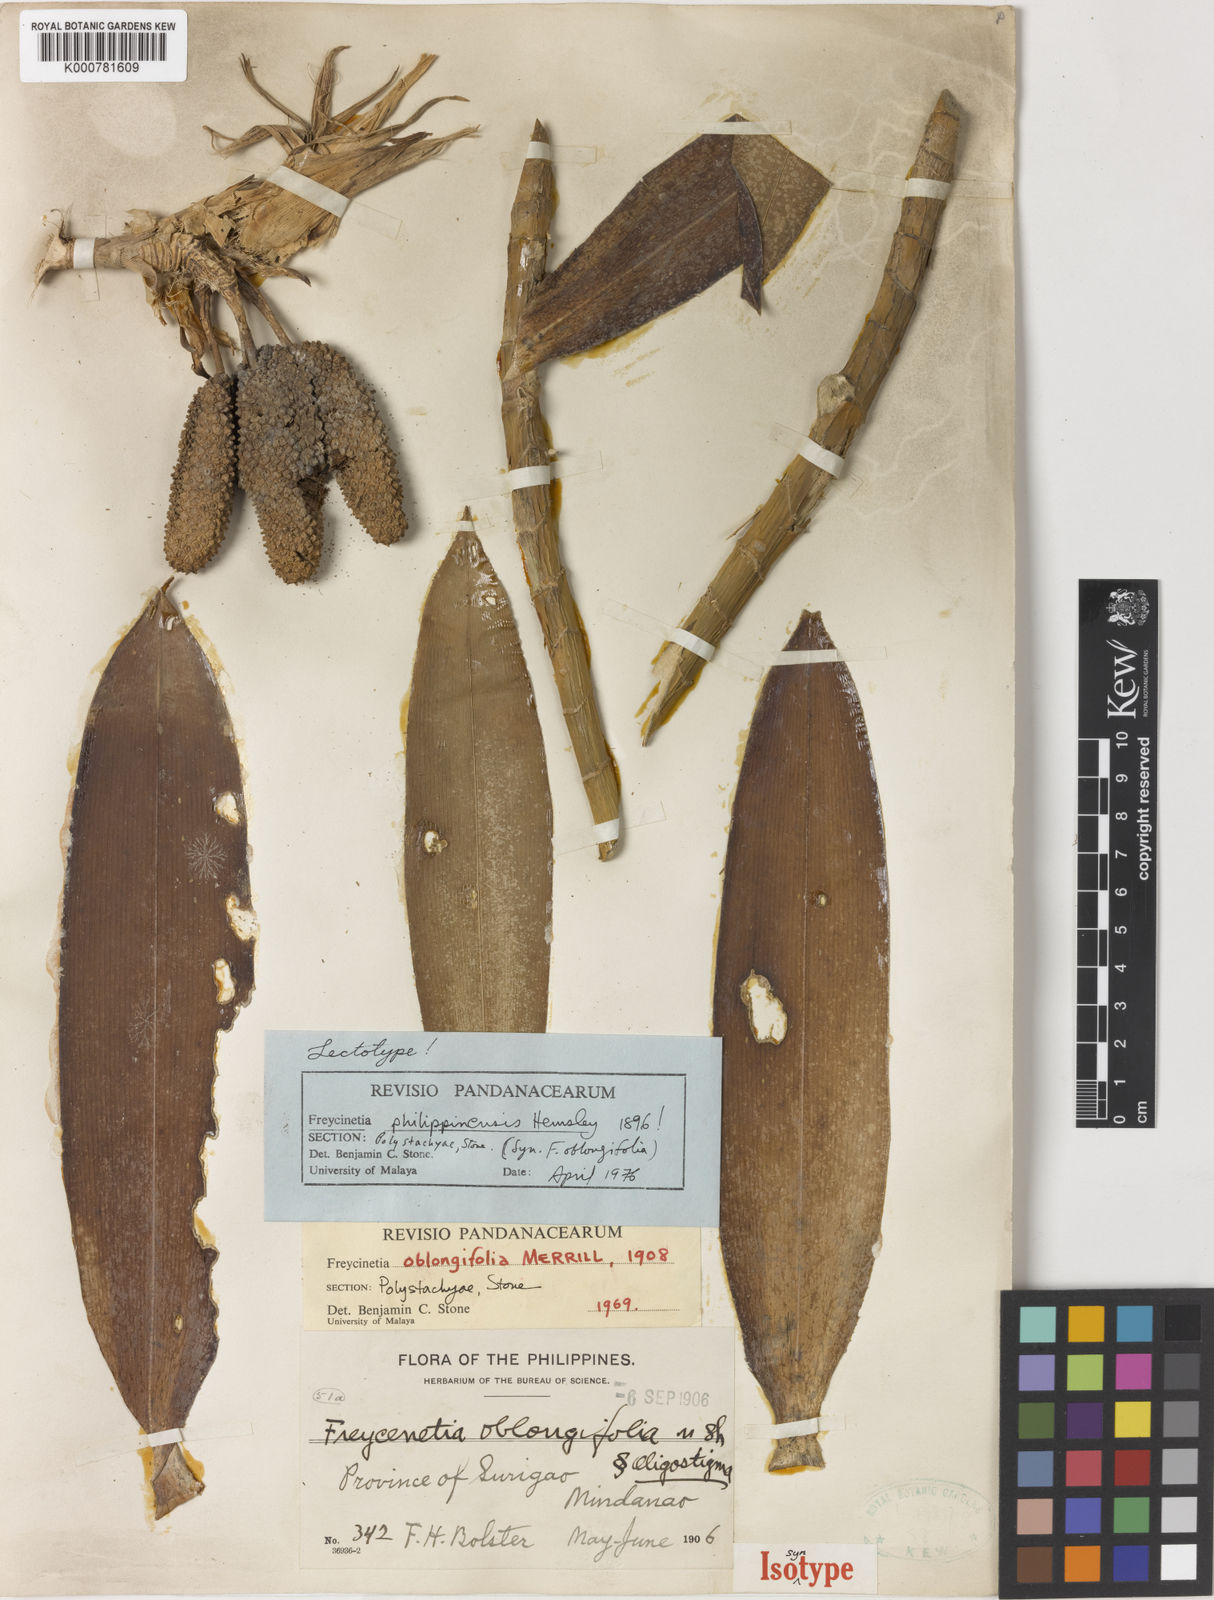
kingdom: Plantae
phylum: Tracheophyta
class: Liliopsida
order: Pandanales
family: Pandanaceae
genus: Freycinetia
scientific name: Freycinetia
